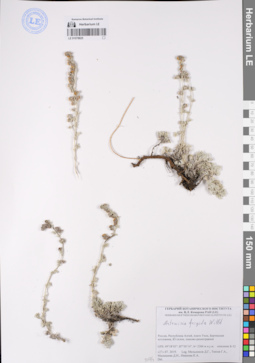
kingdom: Plantae
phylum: Tracheophyta
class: Magnoliopsida
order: Asterales
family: Asteraceae
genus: Artemisia
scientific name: Artemisia frigida
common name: Prairie sagewort
